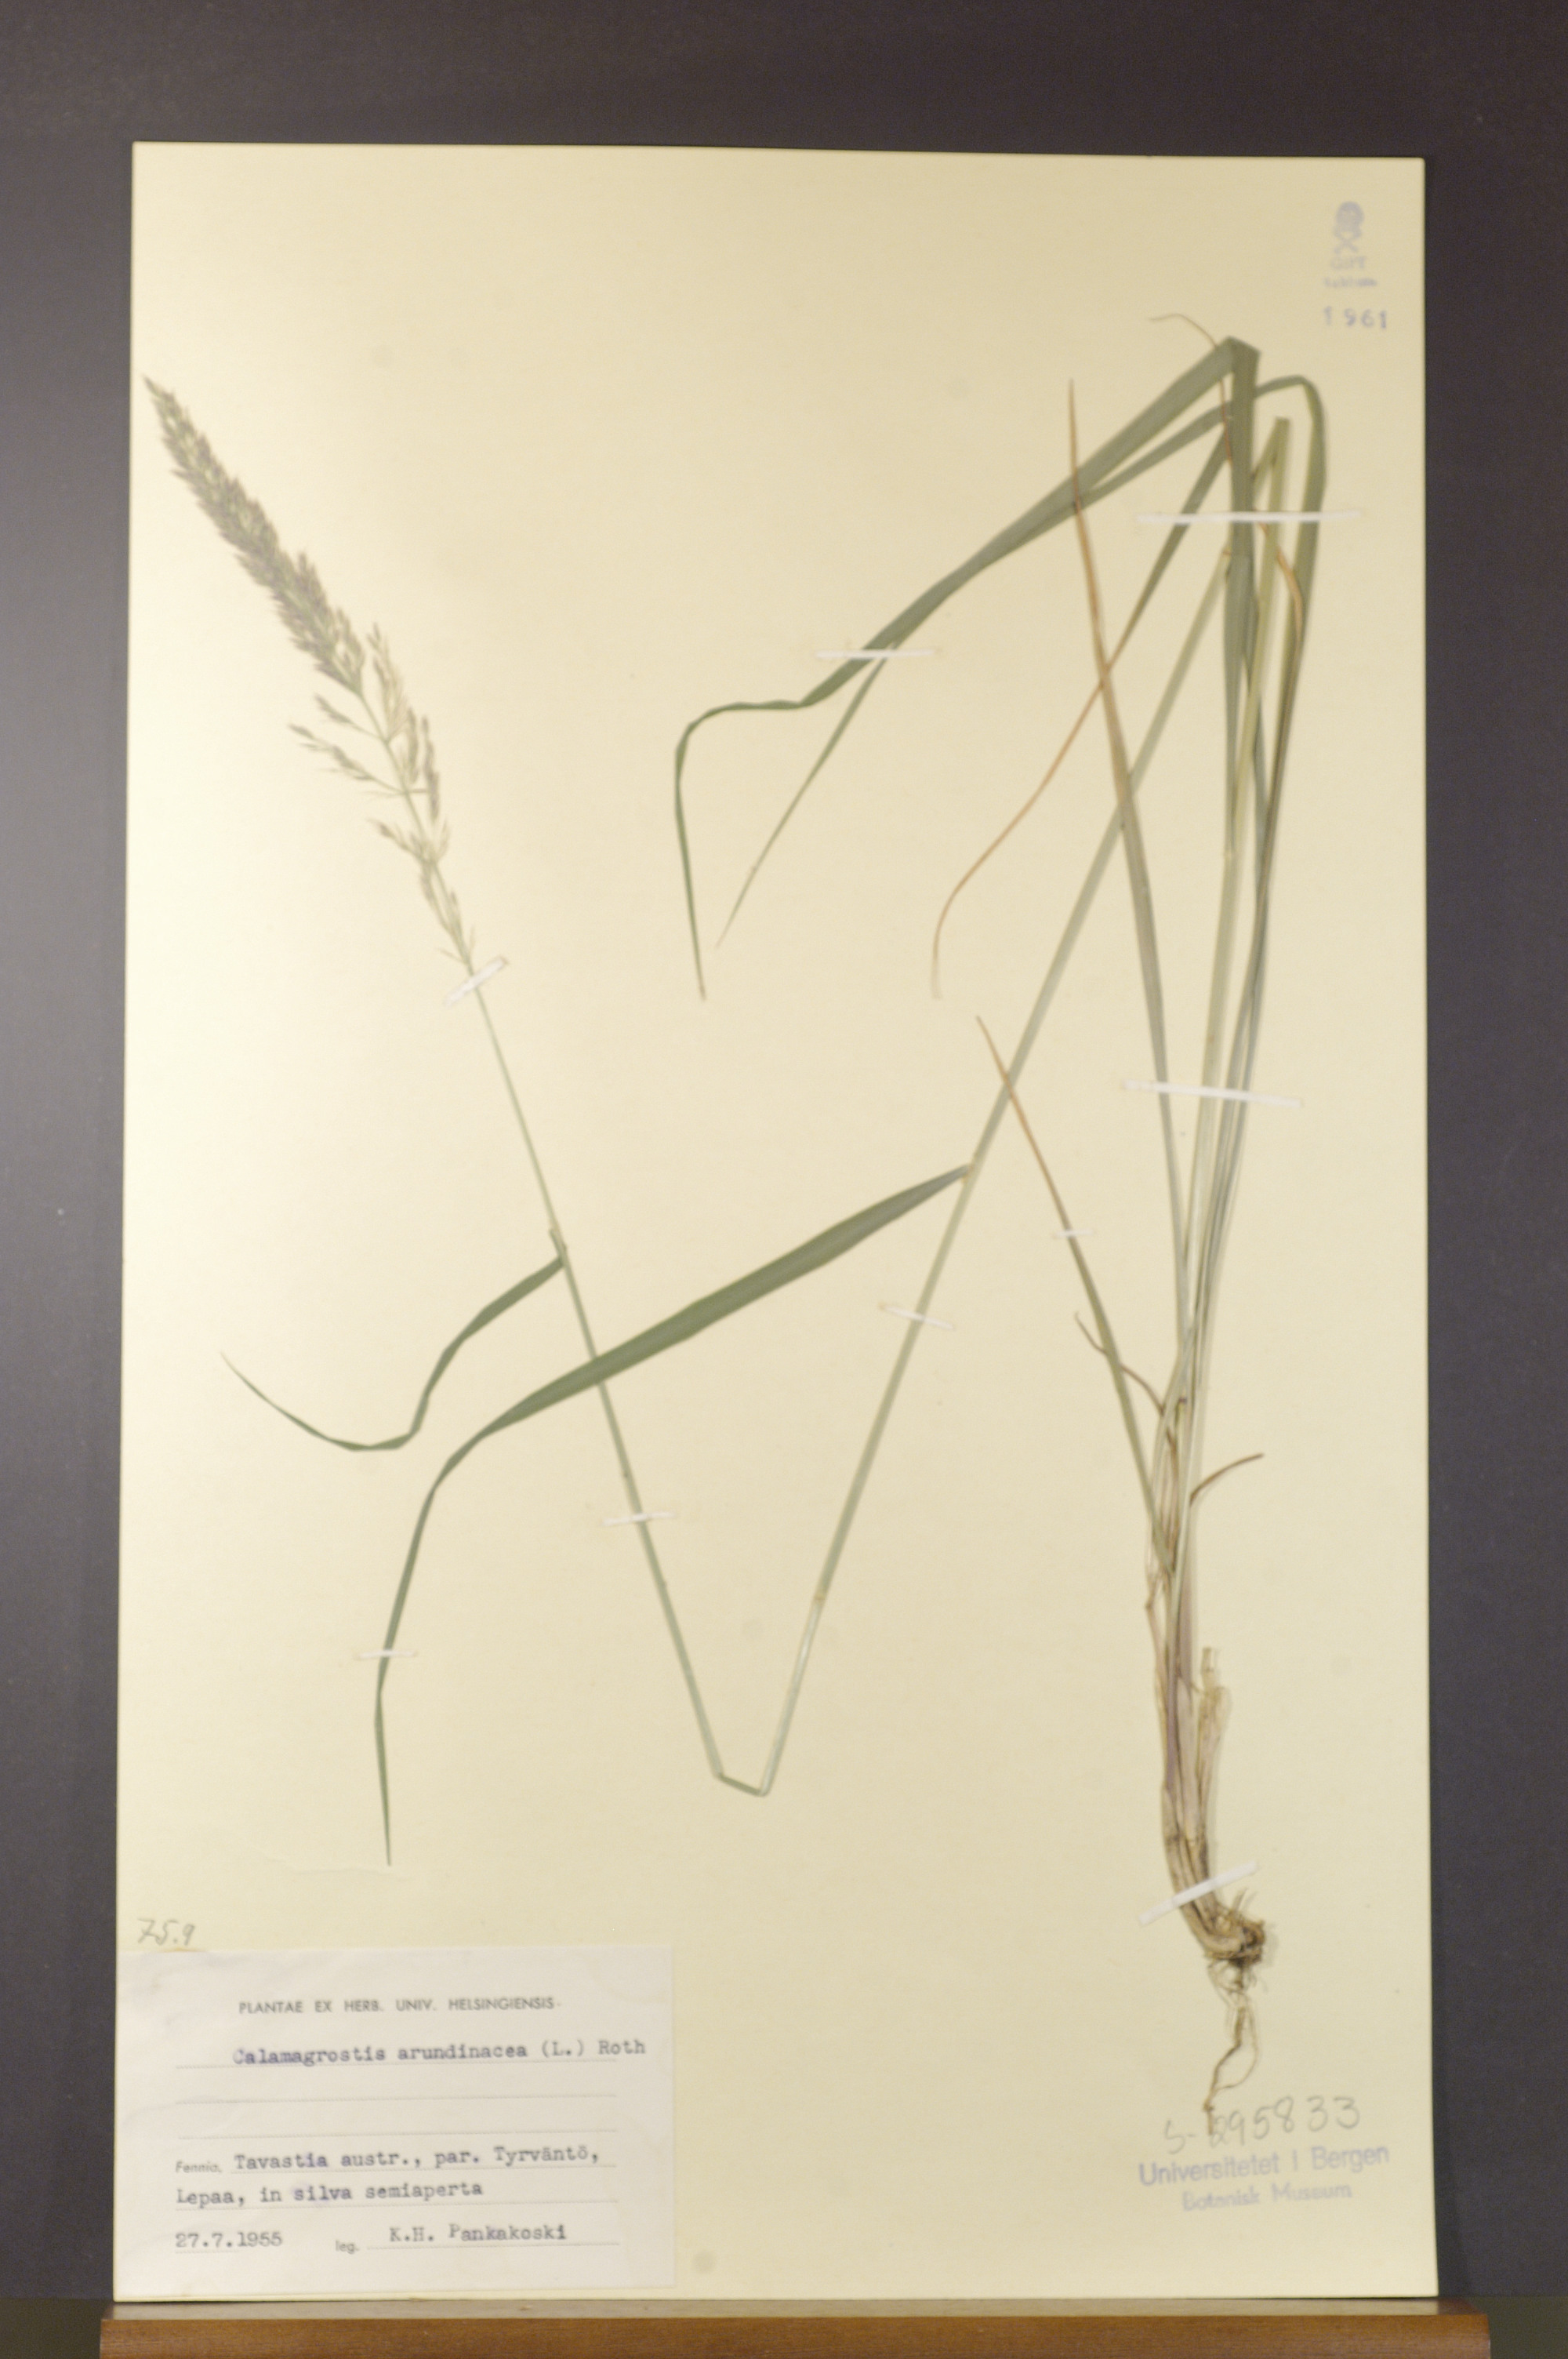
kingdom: Plantae
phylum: Tracheophyta
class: Liliopsida
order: Poales
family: Poaceae
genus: Calamagrostis
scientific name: Calamagrostis arundinacea
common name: Metskastik
